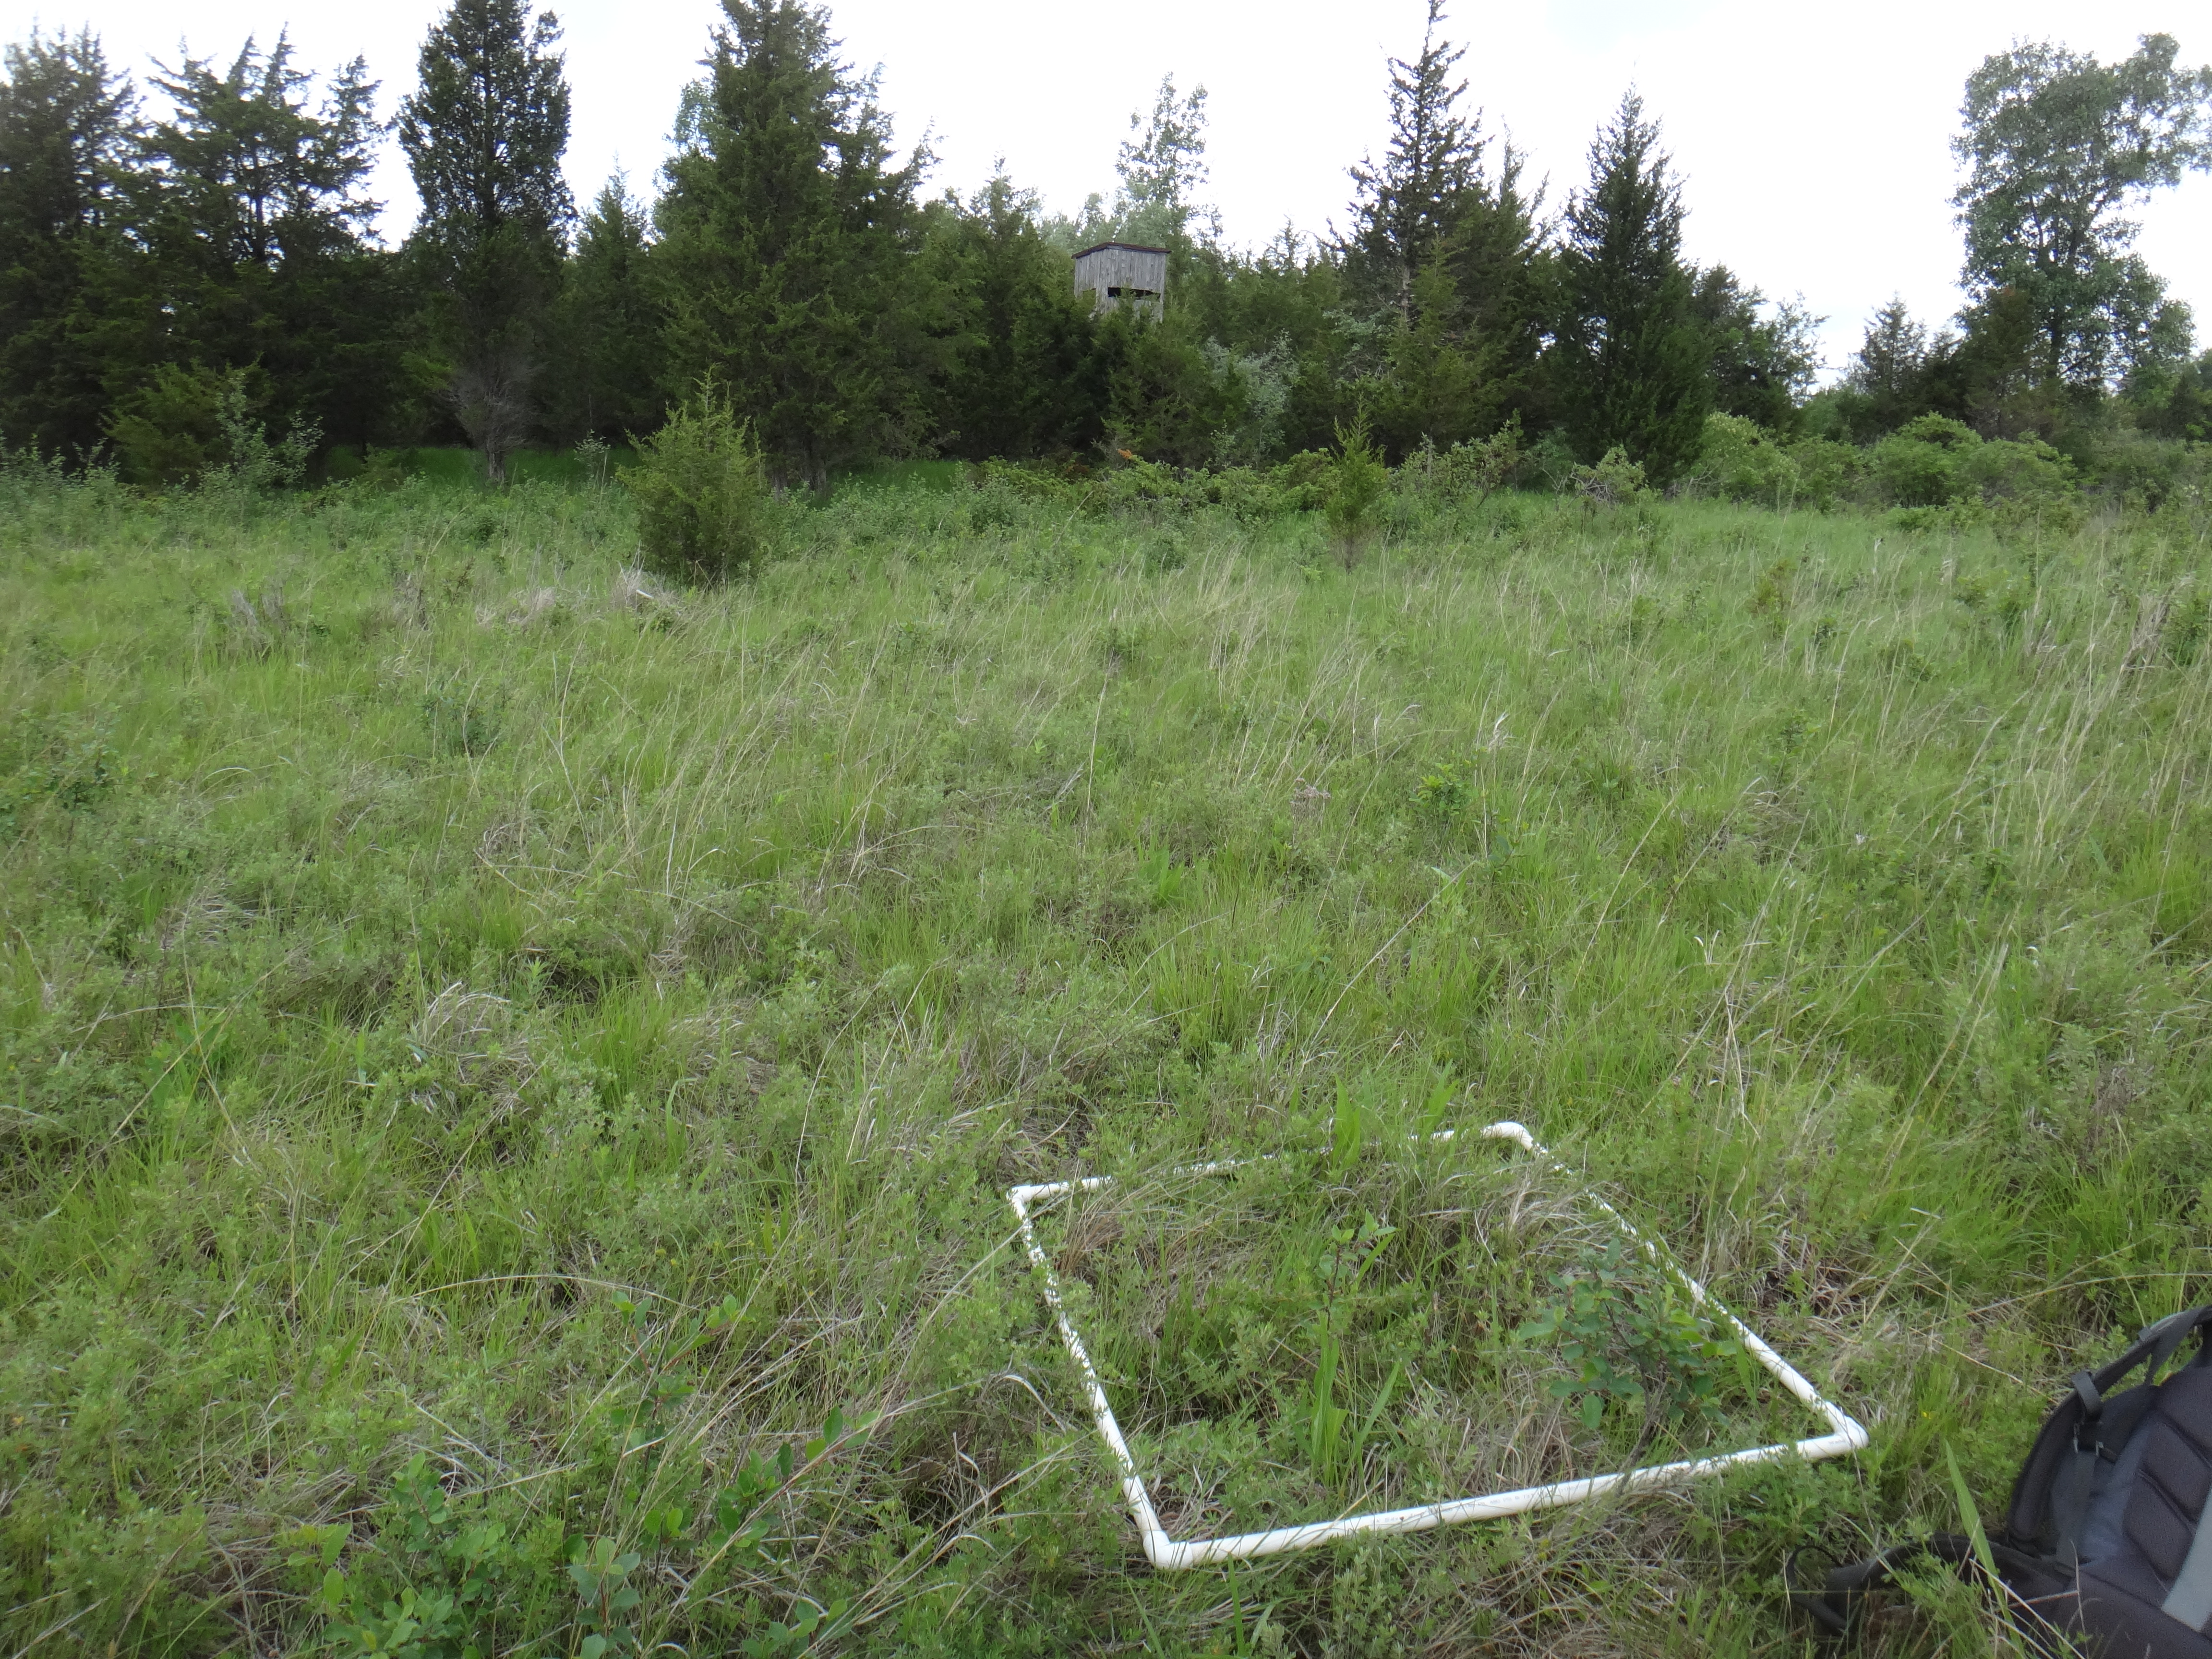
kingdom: Plantae
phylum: Tracheophyta
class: Magnoliopsida
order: Asterales
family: Asteraceae
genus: Solidago
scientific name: Solidago ohioensis
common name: Ohio goldenrod
